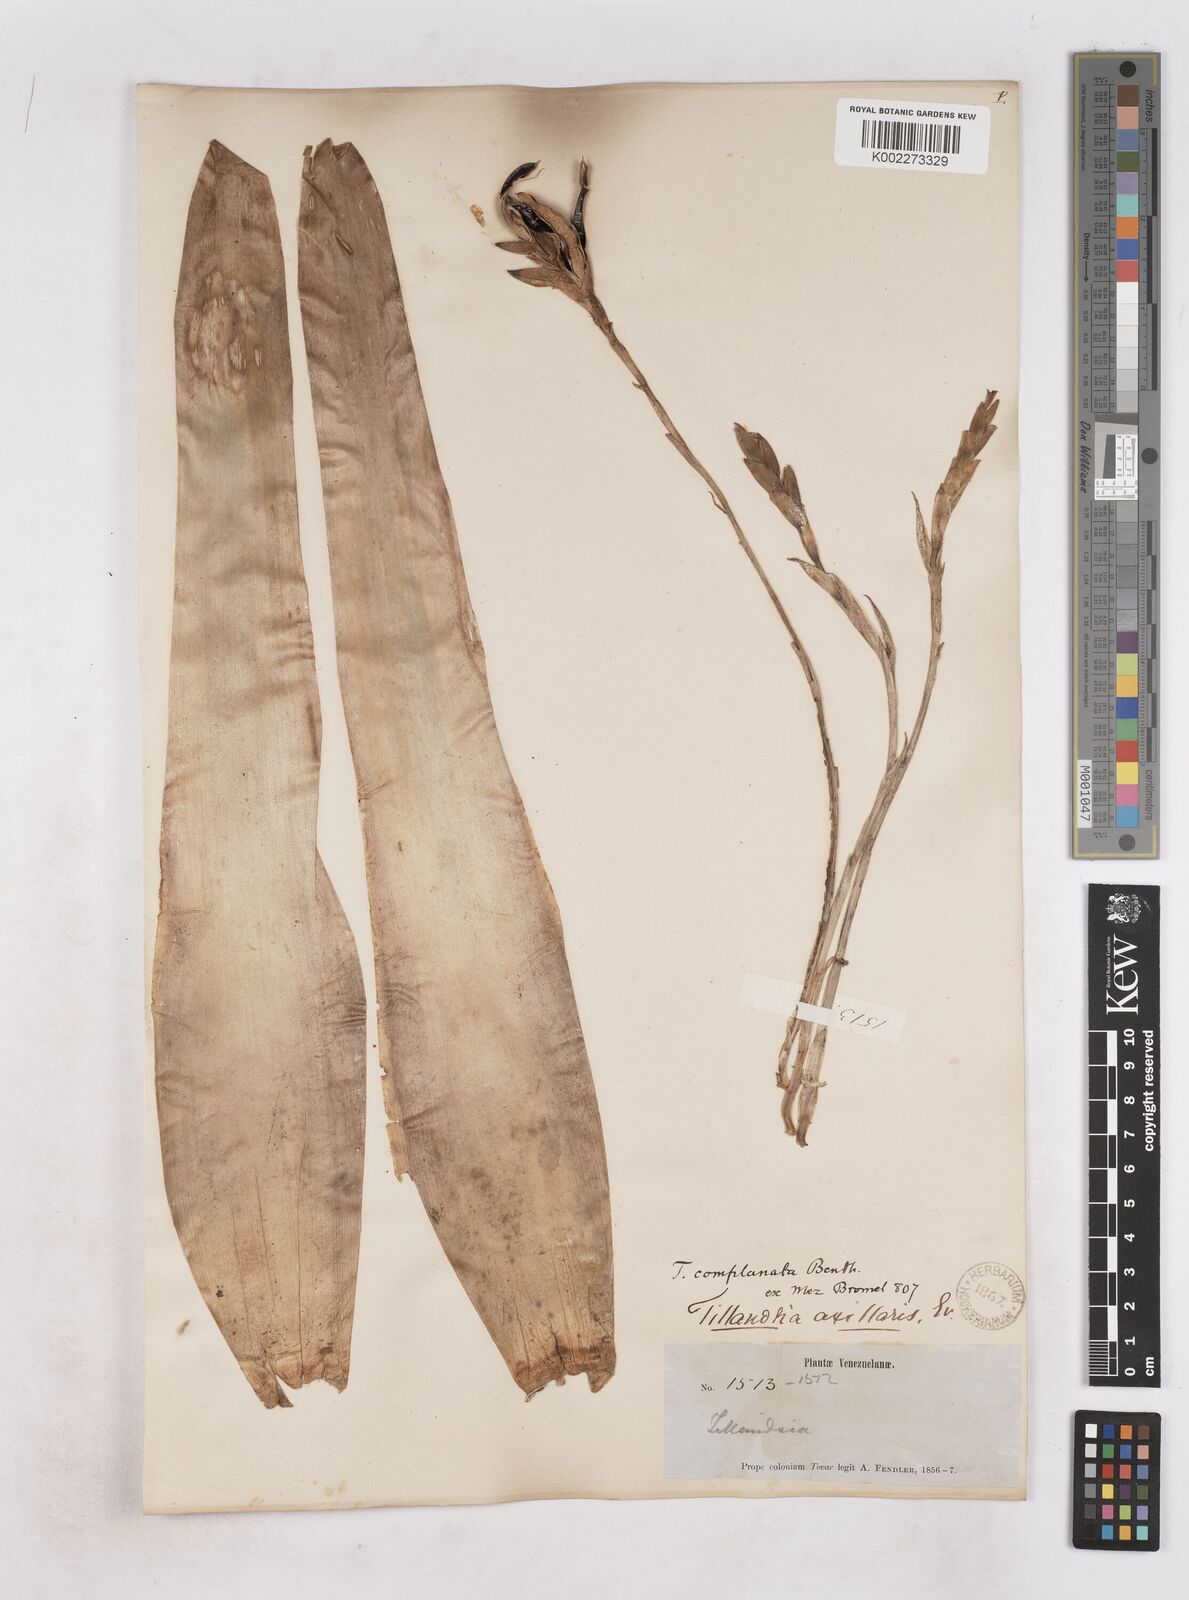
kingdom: Plantae
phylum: Tracheophyta
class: Liliopsida
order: Poales
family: Bromeliaceae
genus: Tillandsia
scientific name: Tillandsia complanata
